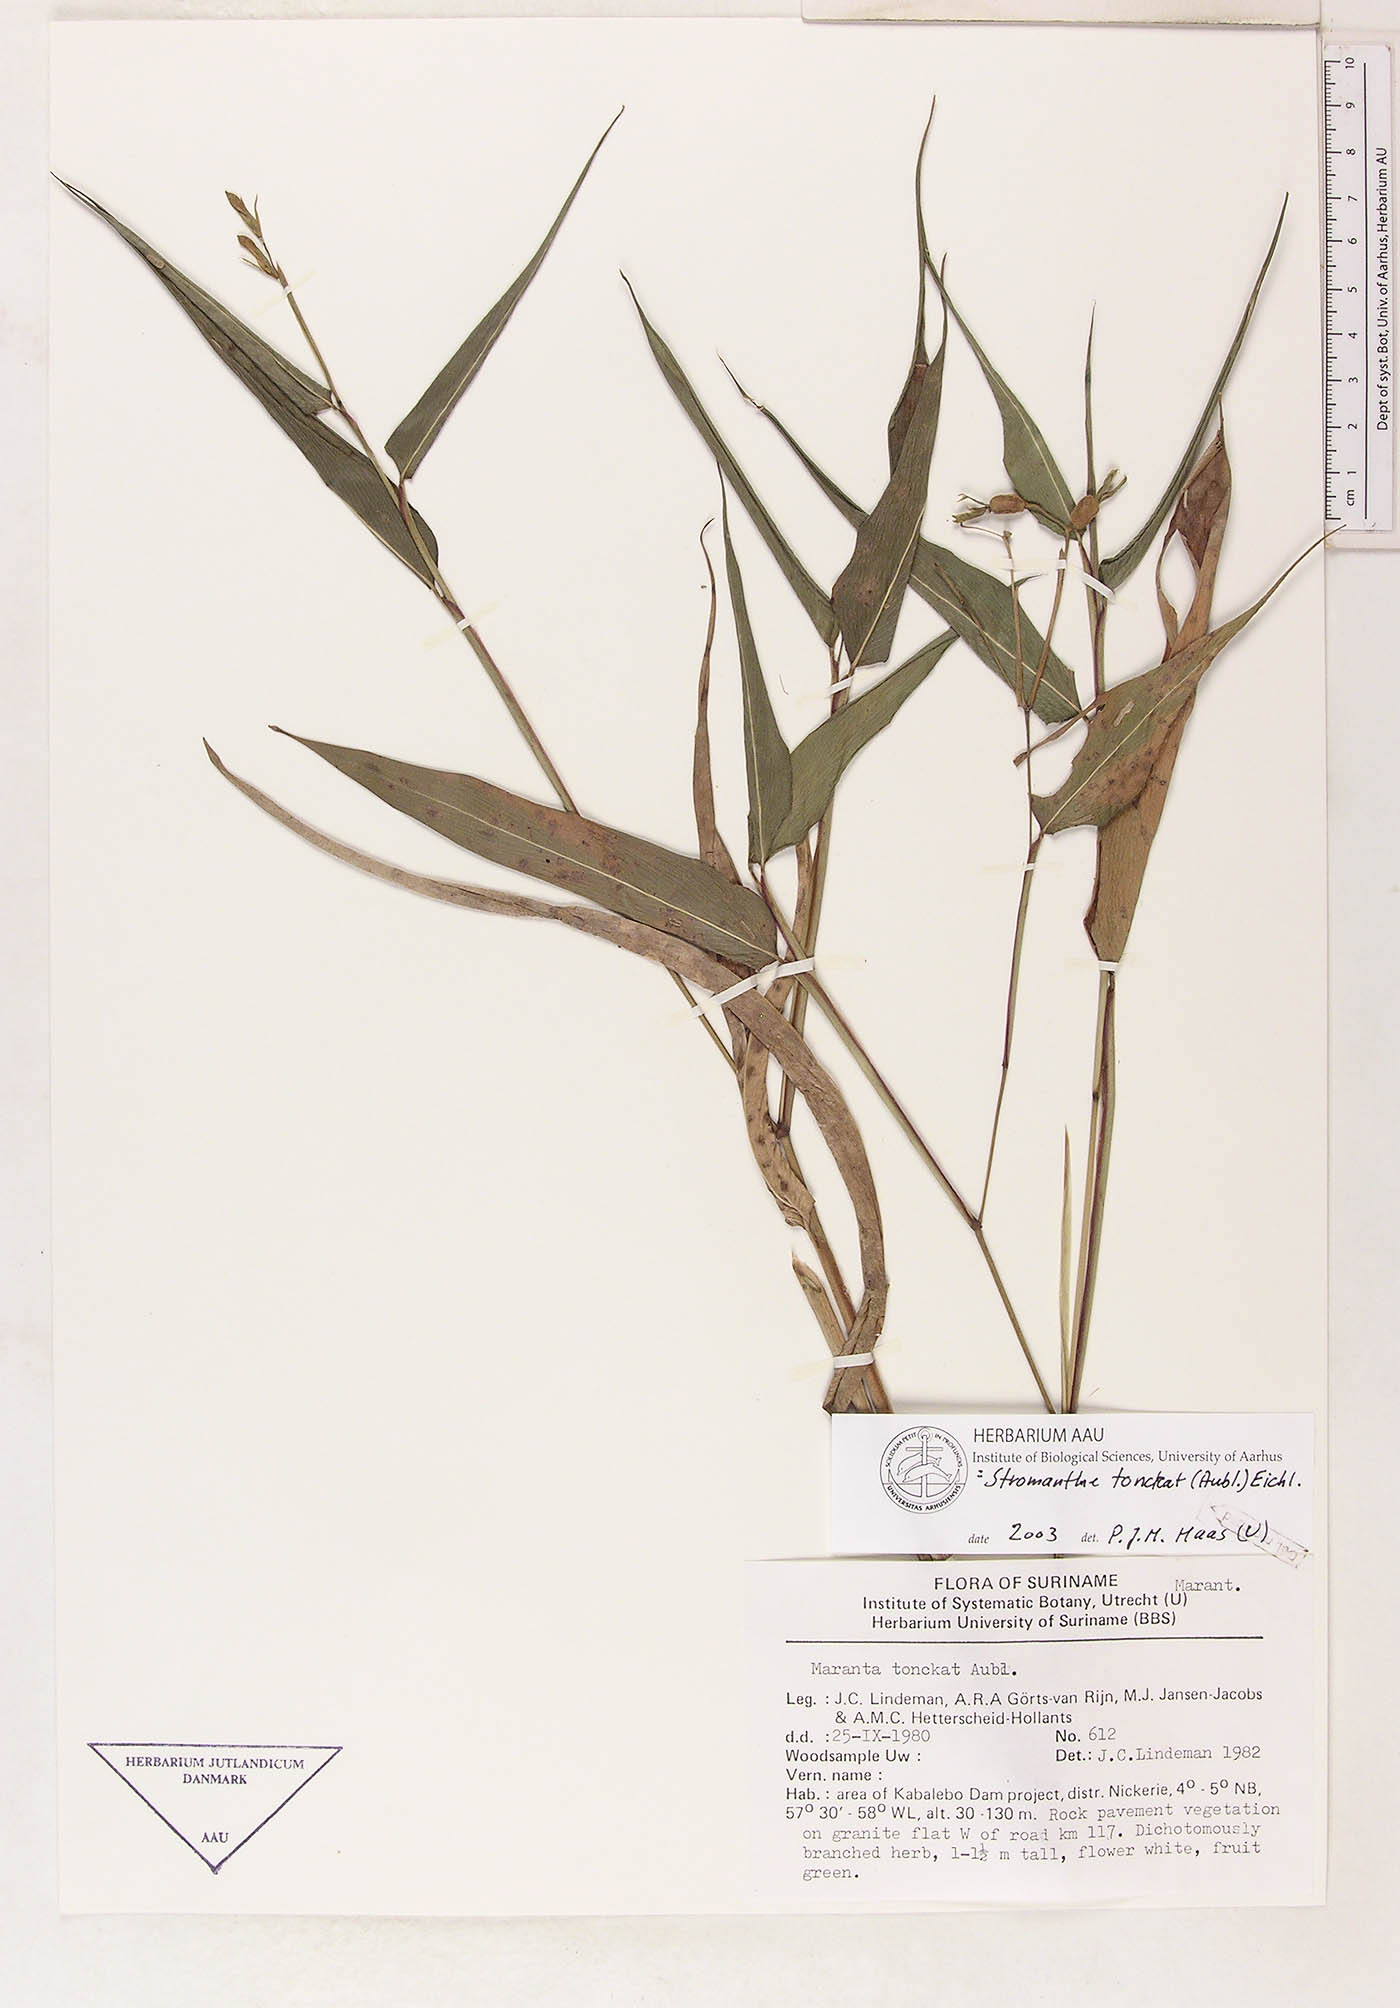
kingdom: Plantae
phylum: Tracheophyta
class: Liliopsida
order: Zingiberales
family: Marantaceae
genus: Stromanthe
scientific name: Stromanthe tonckat
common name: Stromanthe
